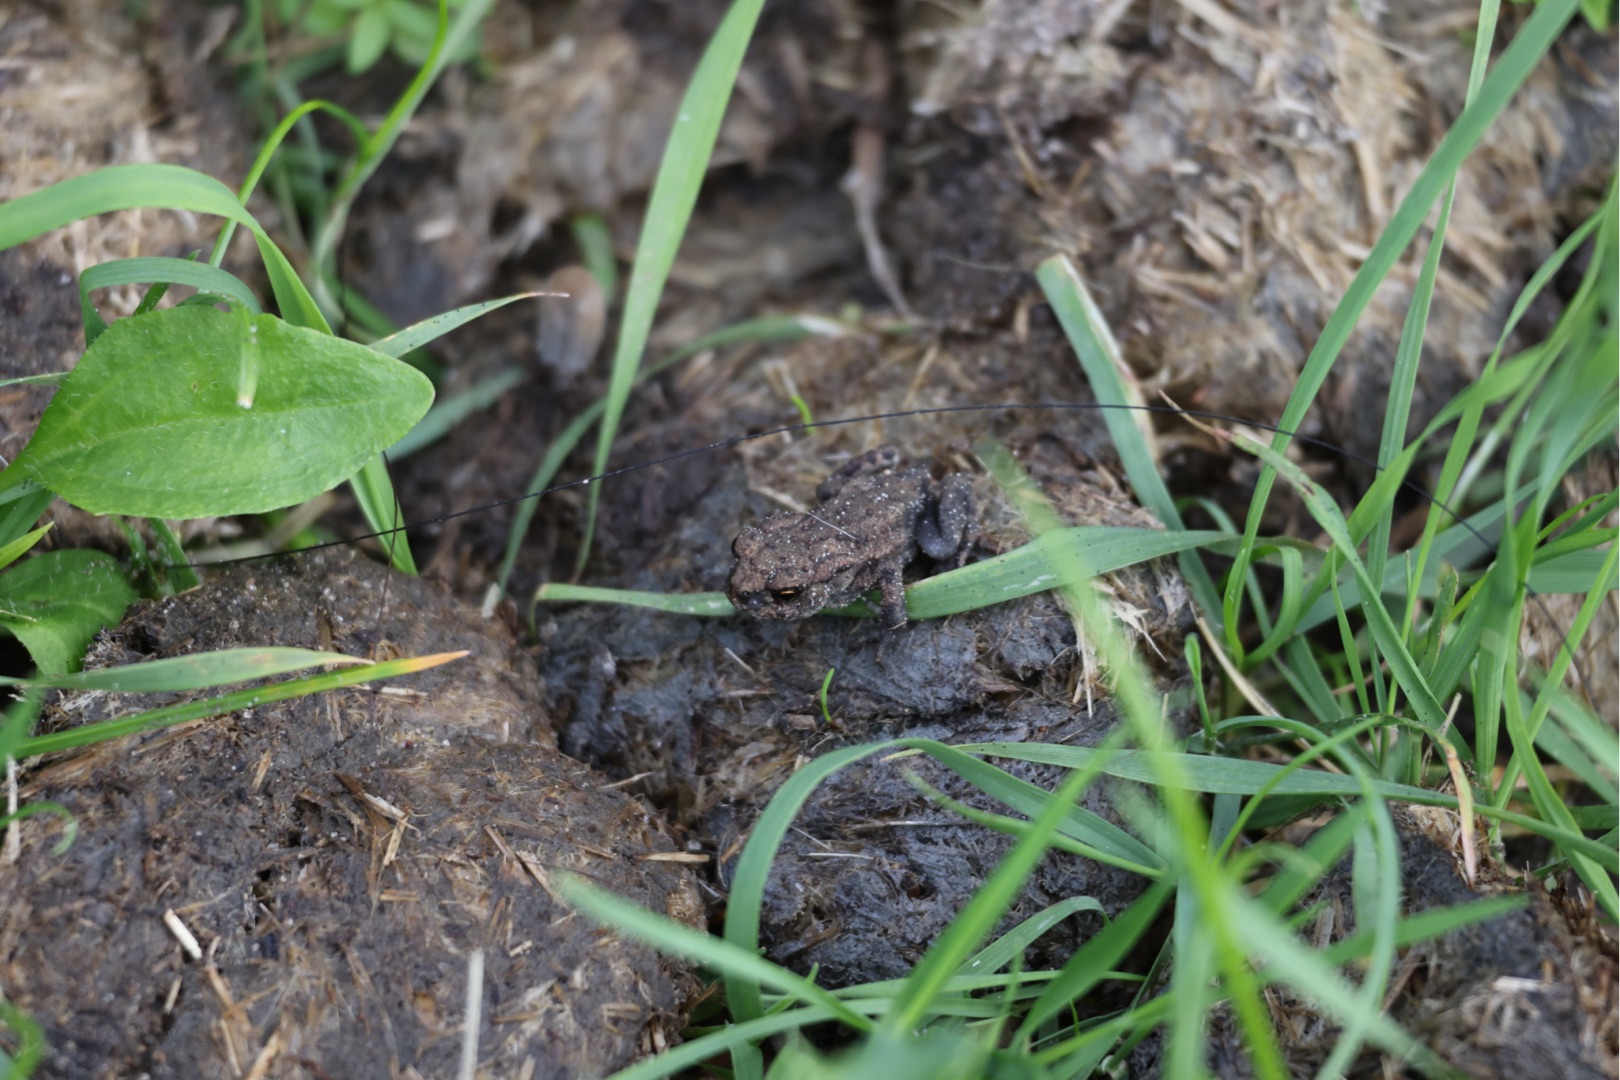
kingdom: Animalia
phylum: Chordata
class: Amphibia
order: Anura
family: Bufonidae
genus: Bufo
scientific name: Bufo bufo
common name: Skrubtudse
